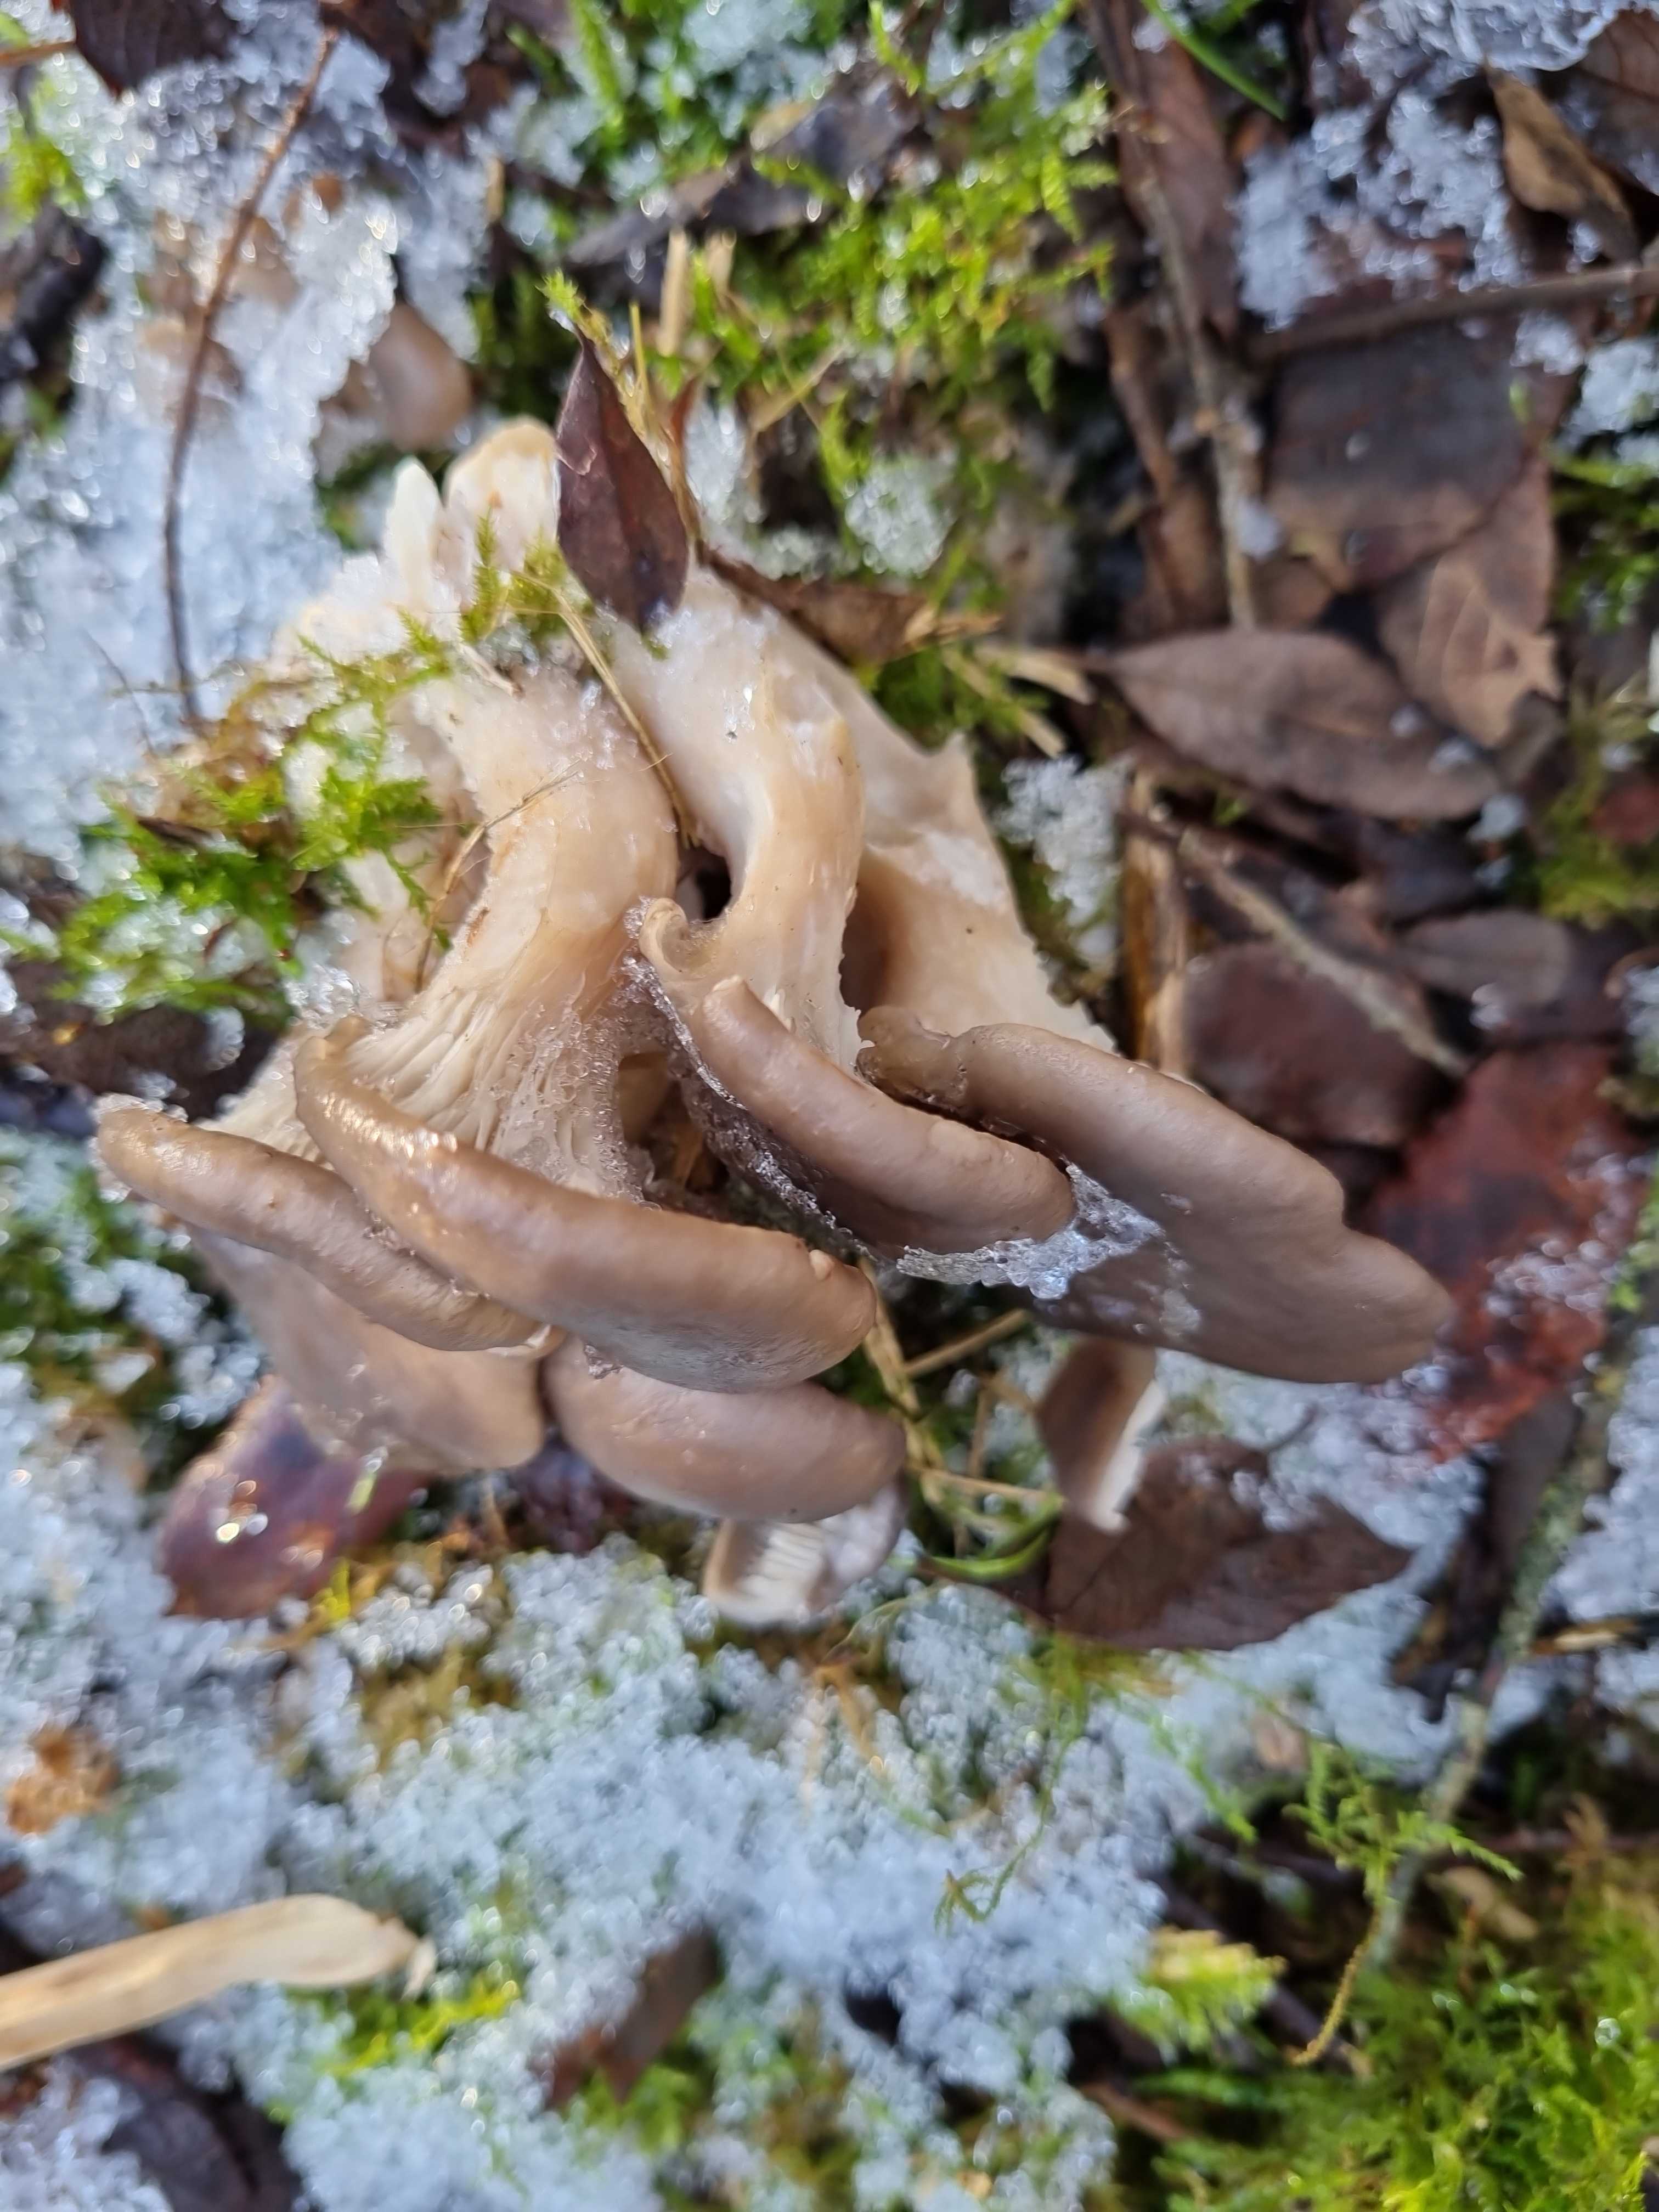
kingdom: Fungi
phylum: Basidiomycota
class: Agaricomycetes
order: Agaricales
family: Pleurotaceae
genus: Pleurotus
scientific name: Pleurotus ostreatus
